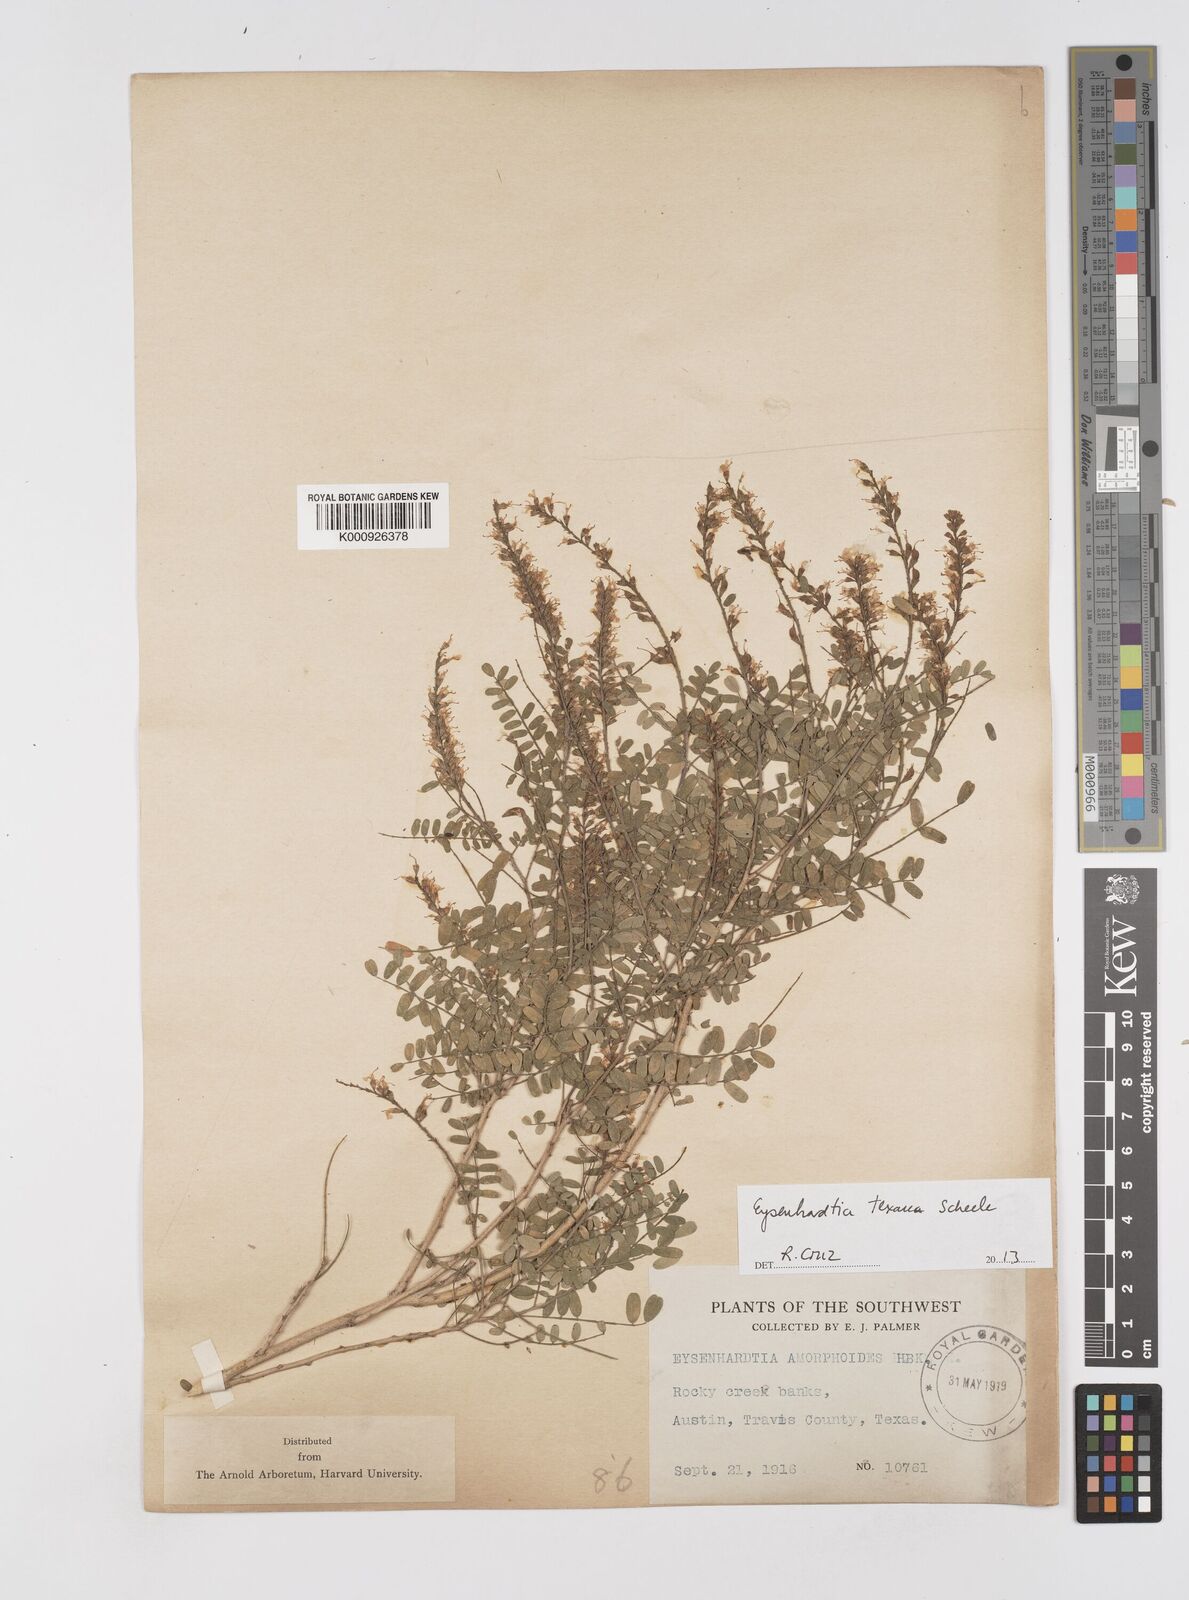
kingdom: Plantae
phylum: Tracheophyta
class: Magnoliopsida
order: Fabales
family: Fabaceae
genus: Eysenhardtia
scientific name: Eysenhardtia texana
